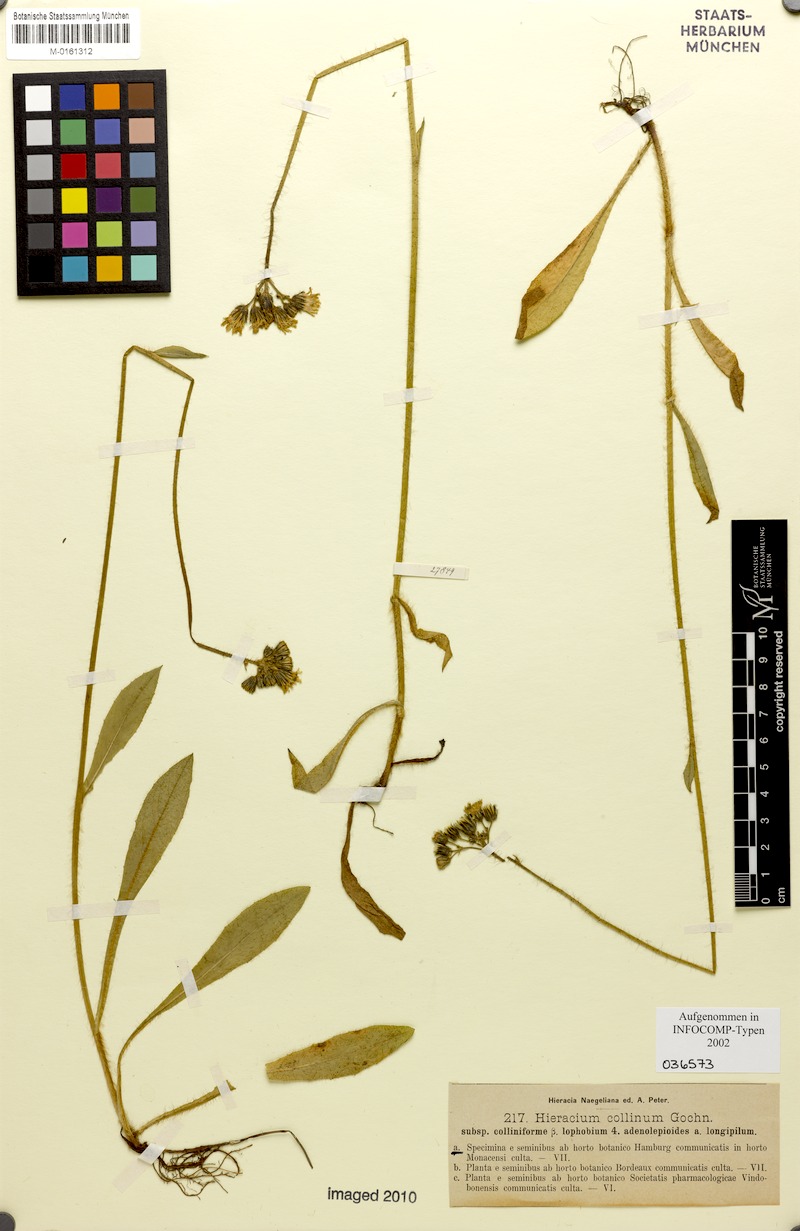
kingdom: Plantae
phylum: Tracheophyta
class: Magnoliopsida
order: Asterales
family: Asteraceae
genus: Pilosella
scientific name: Pilosella caespitosa
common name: Yellow fox-and-cubs
